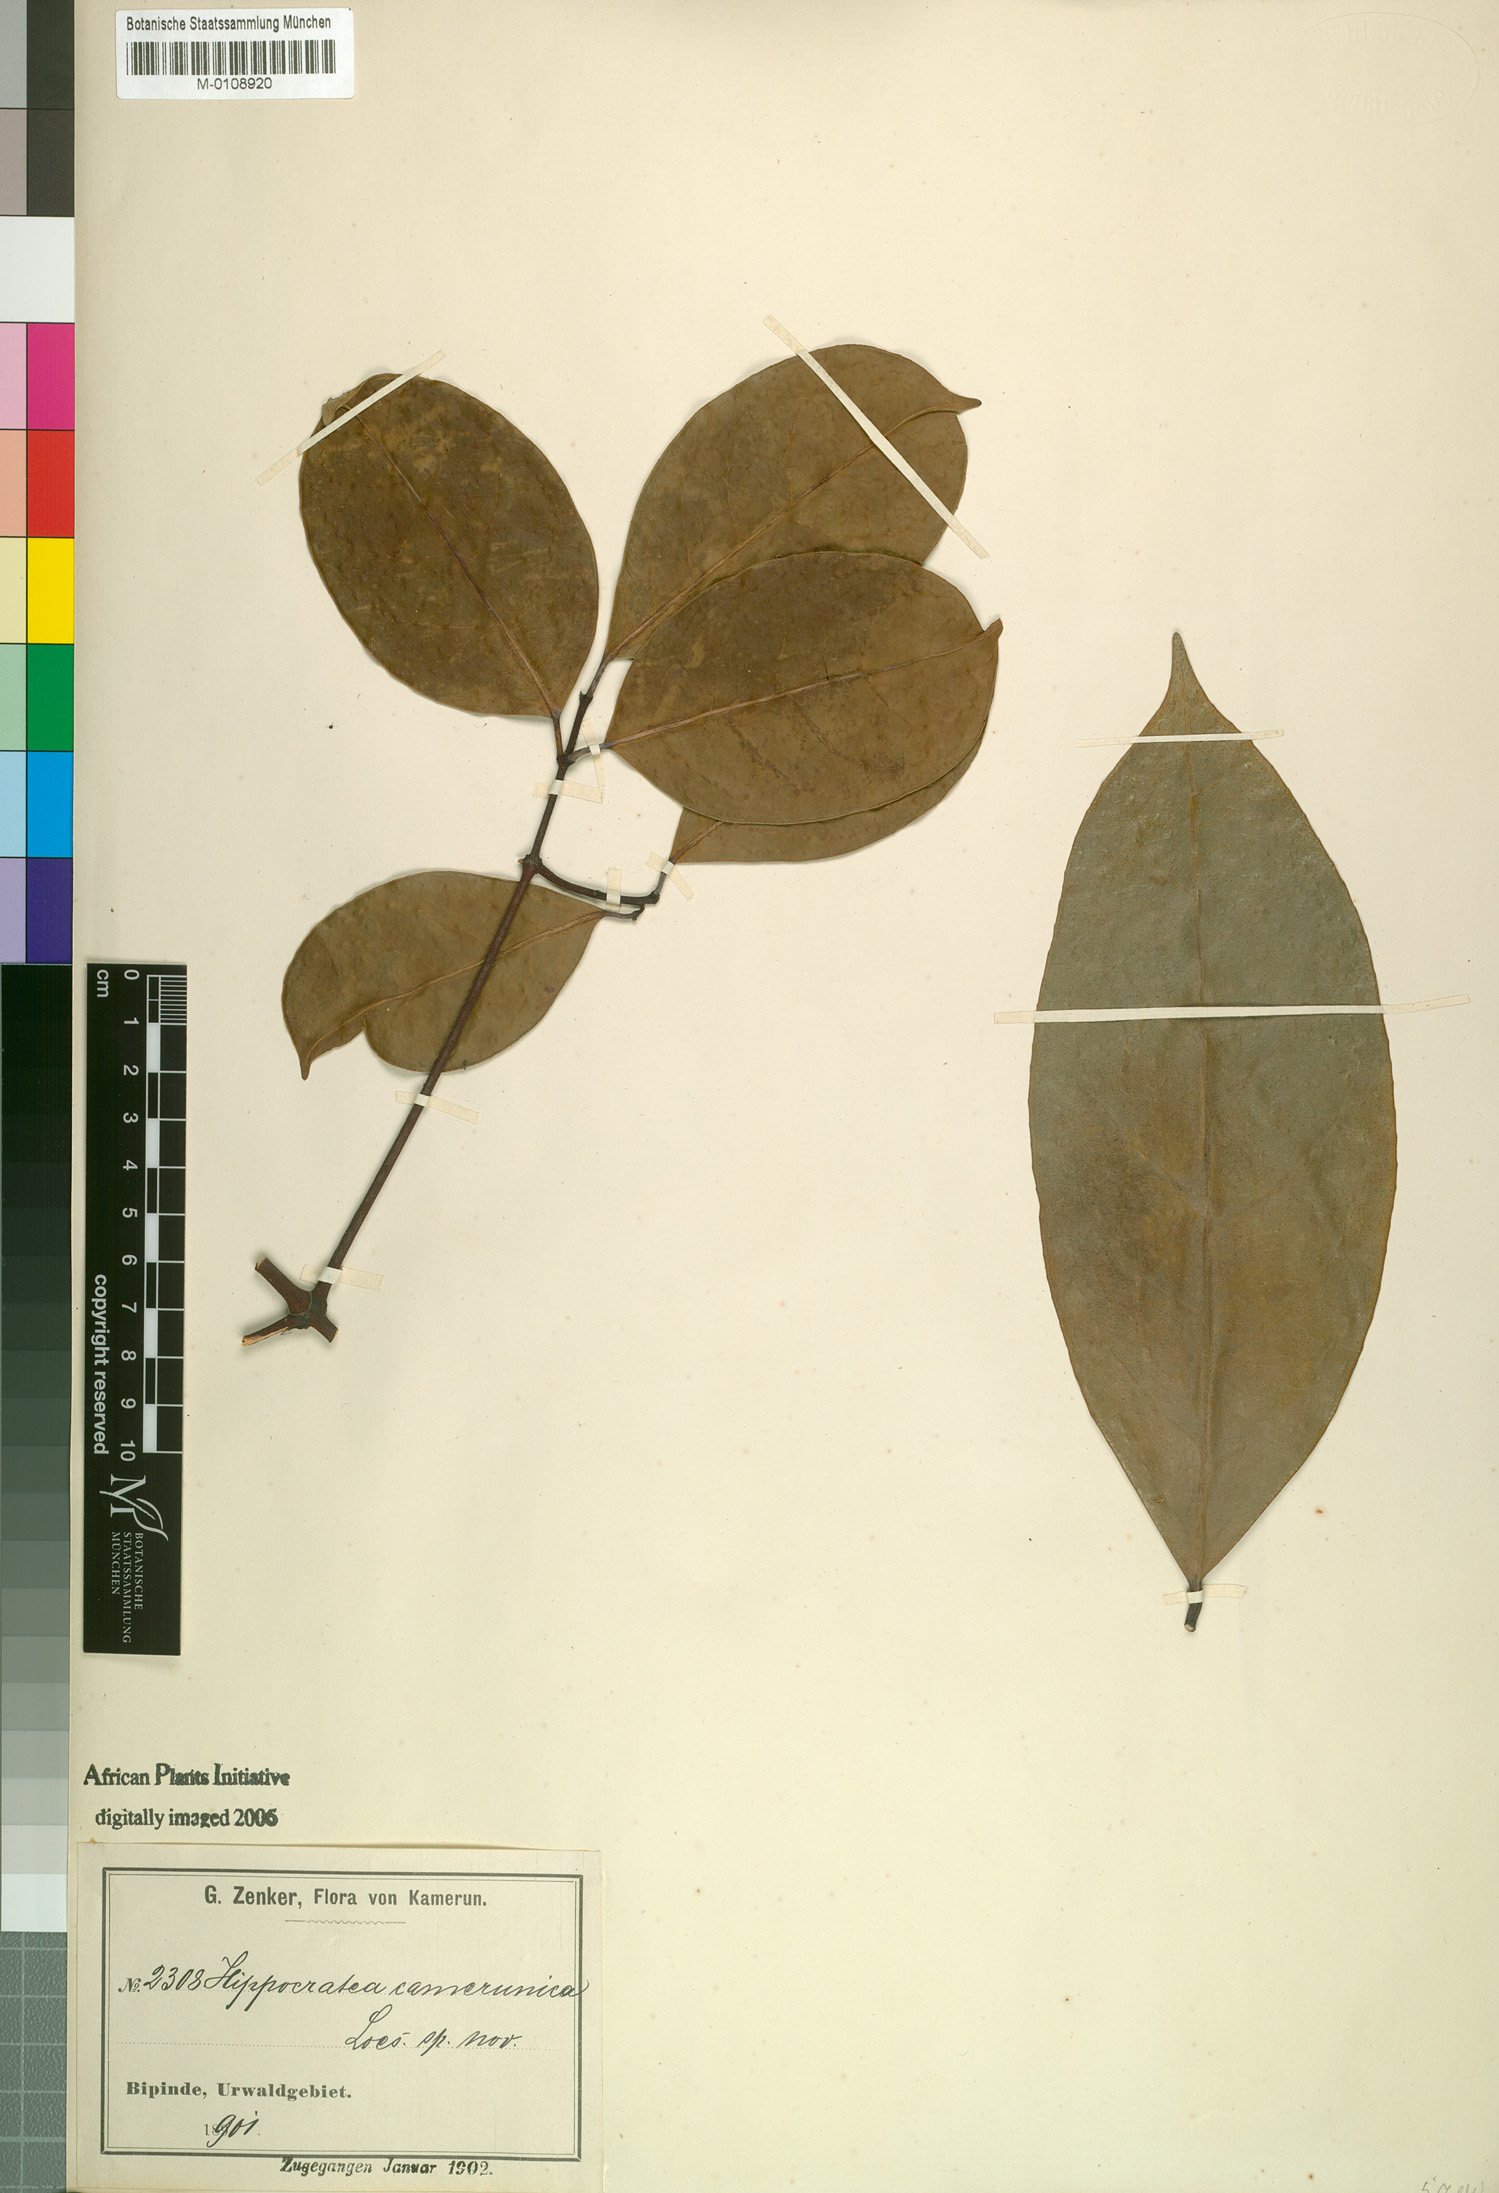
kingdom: Plantae
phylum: Tracheophyta
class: Magnoliopsida
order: Celastrales
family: Celastraceae
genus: Loeseneriella
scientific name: Loeseneriella camerunica
